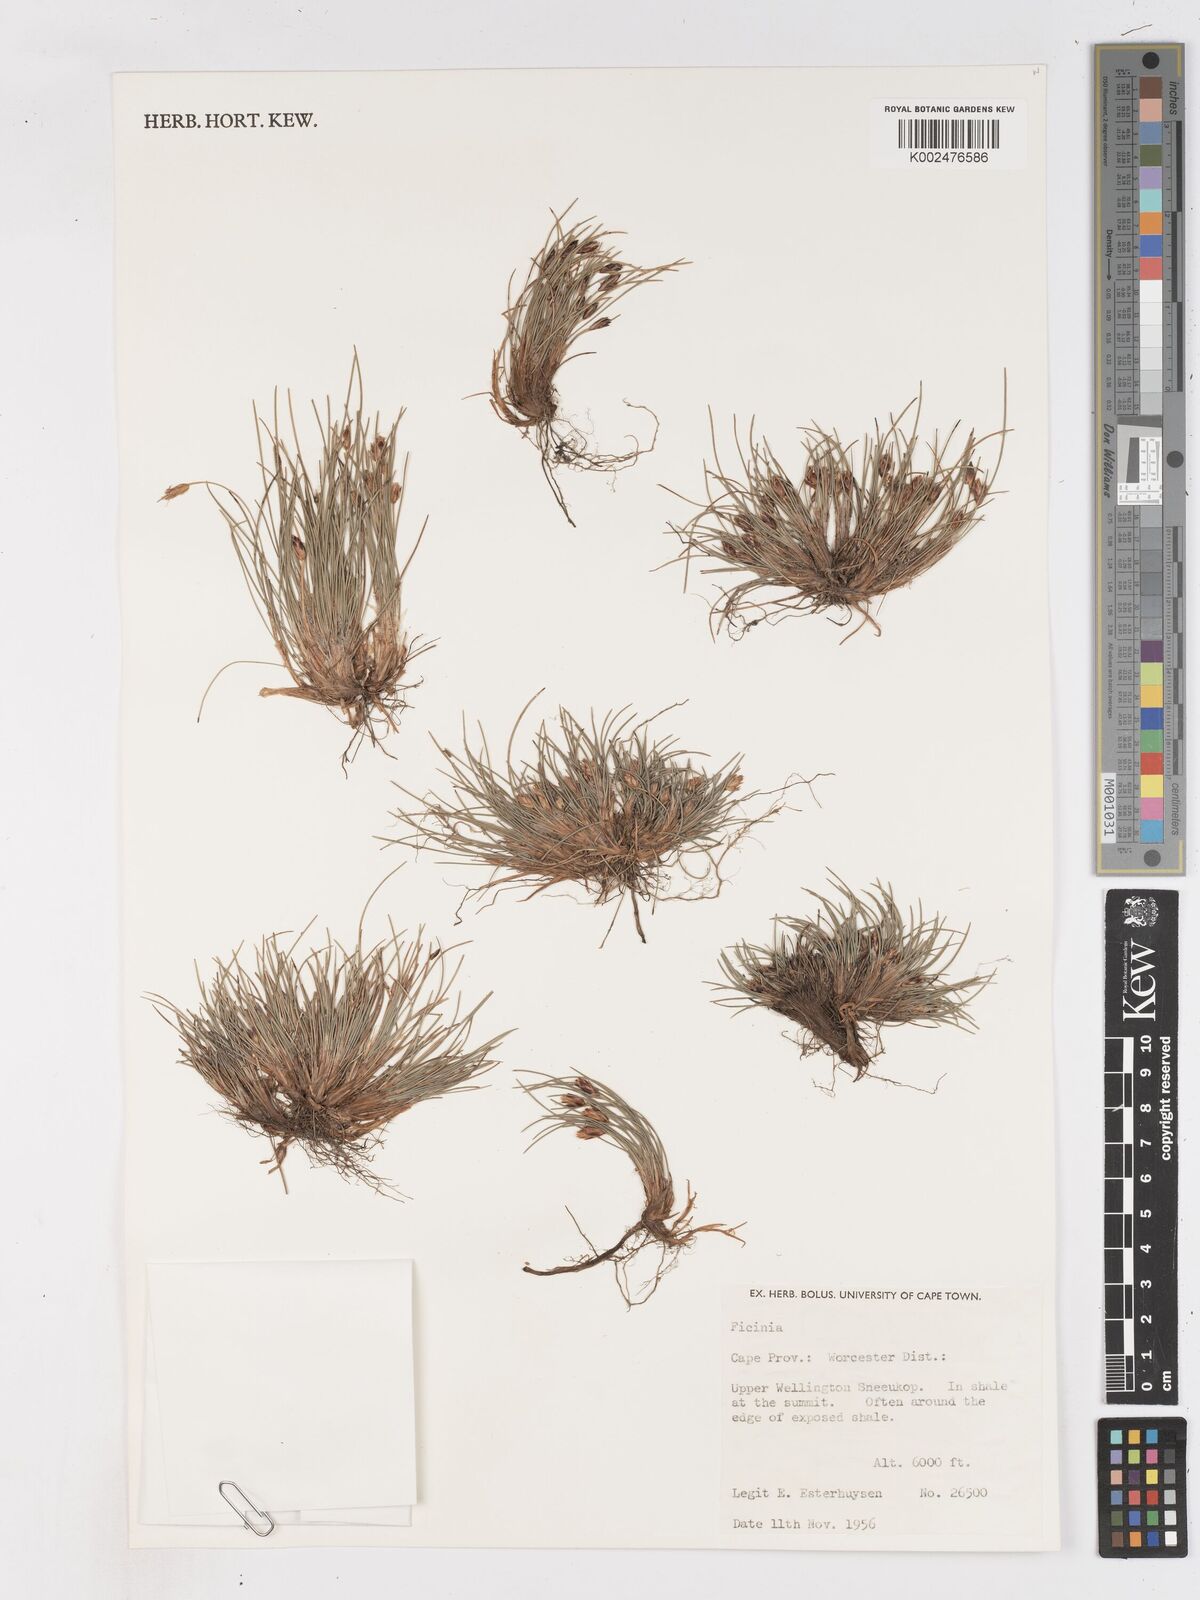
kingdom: Plantae
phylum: Tracheophyta
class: Liliopsida
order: Poales
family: Cyperaceae
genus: Ficinia
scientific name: Ficinia
